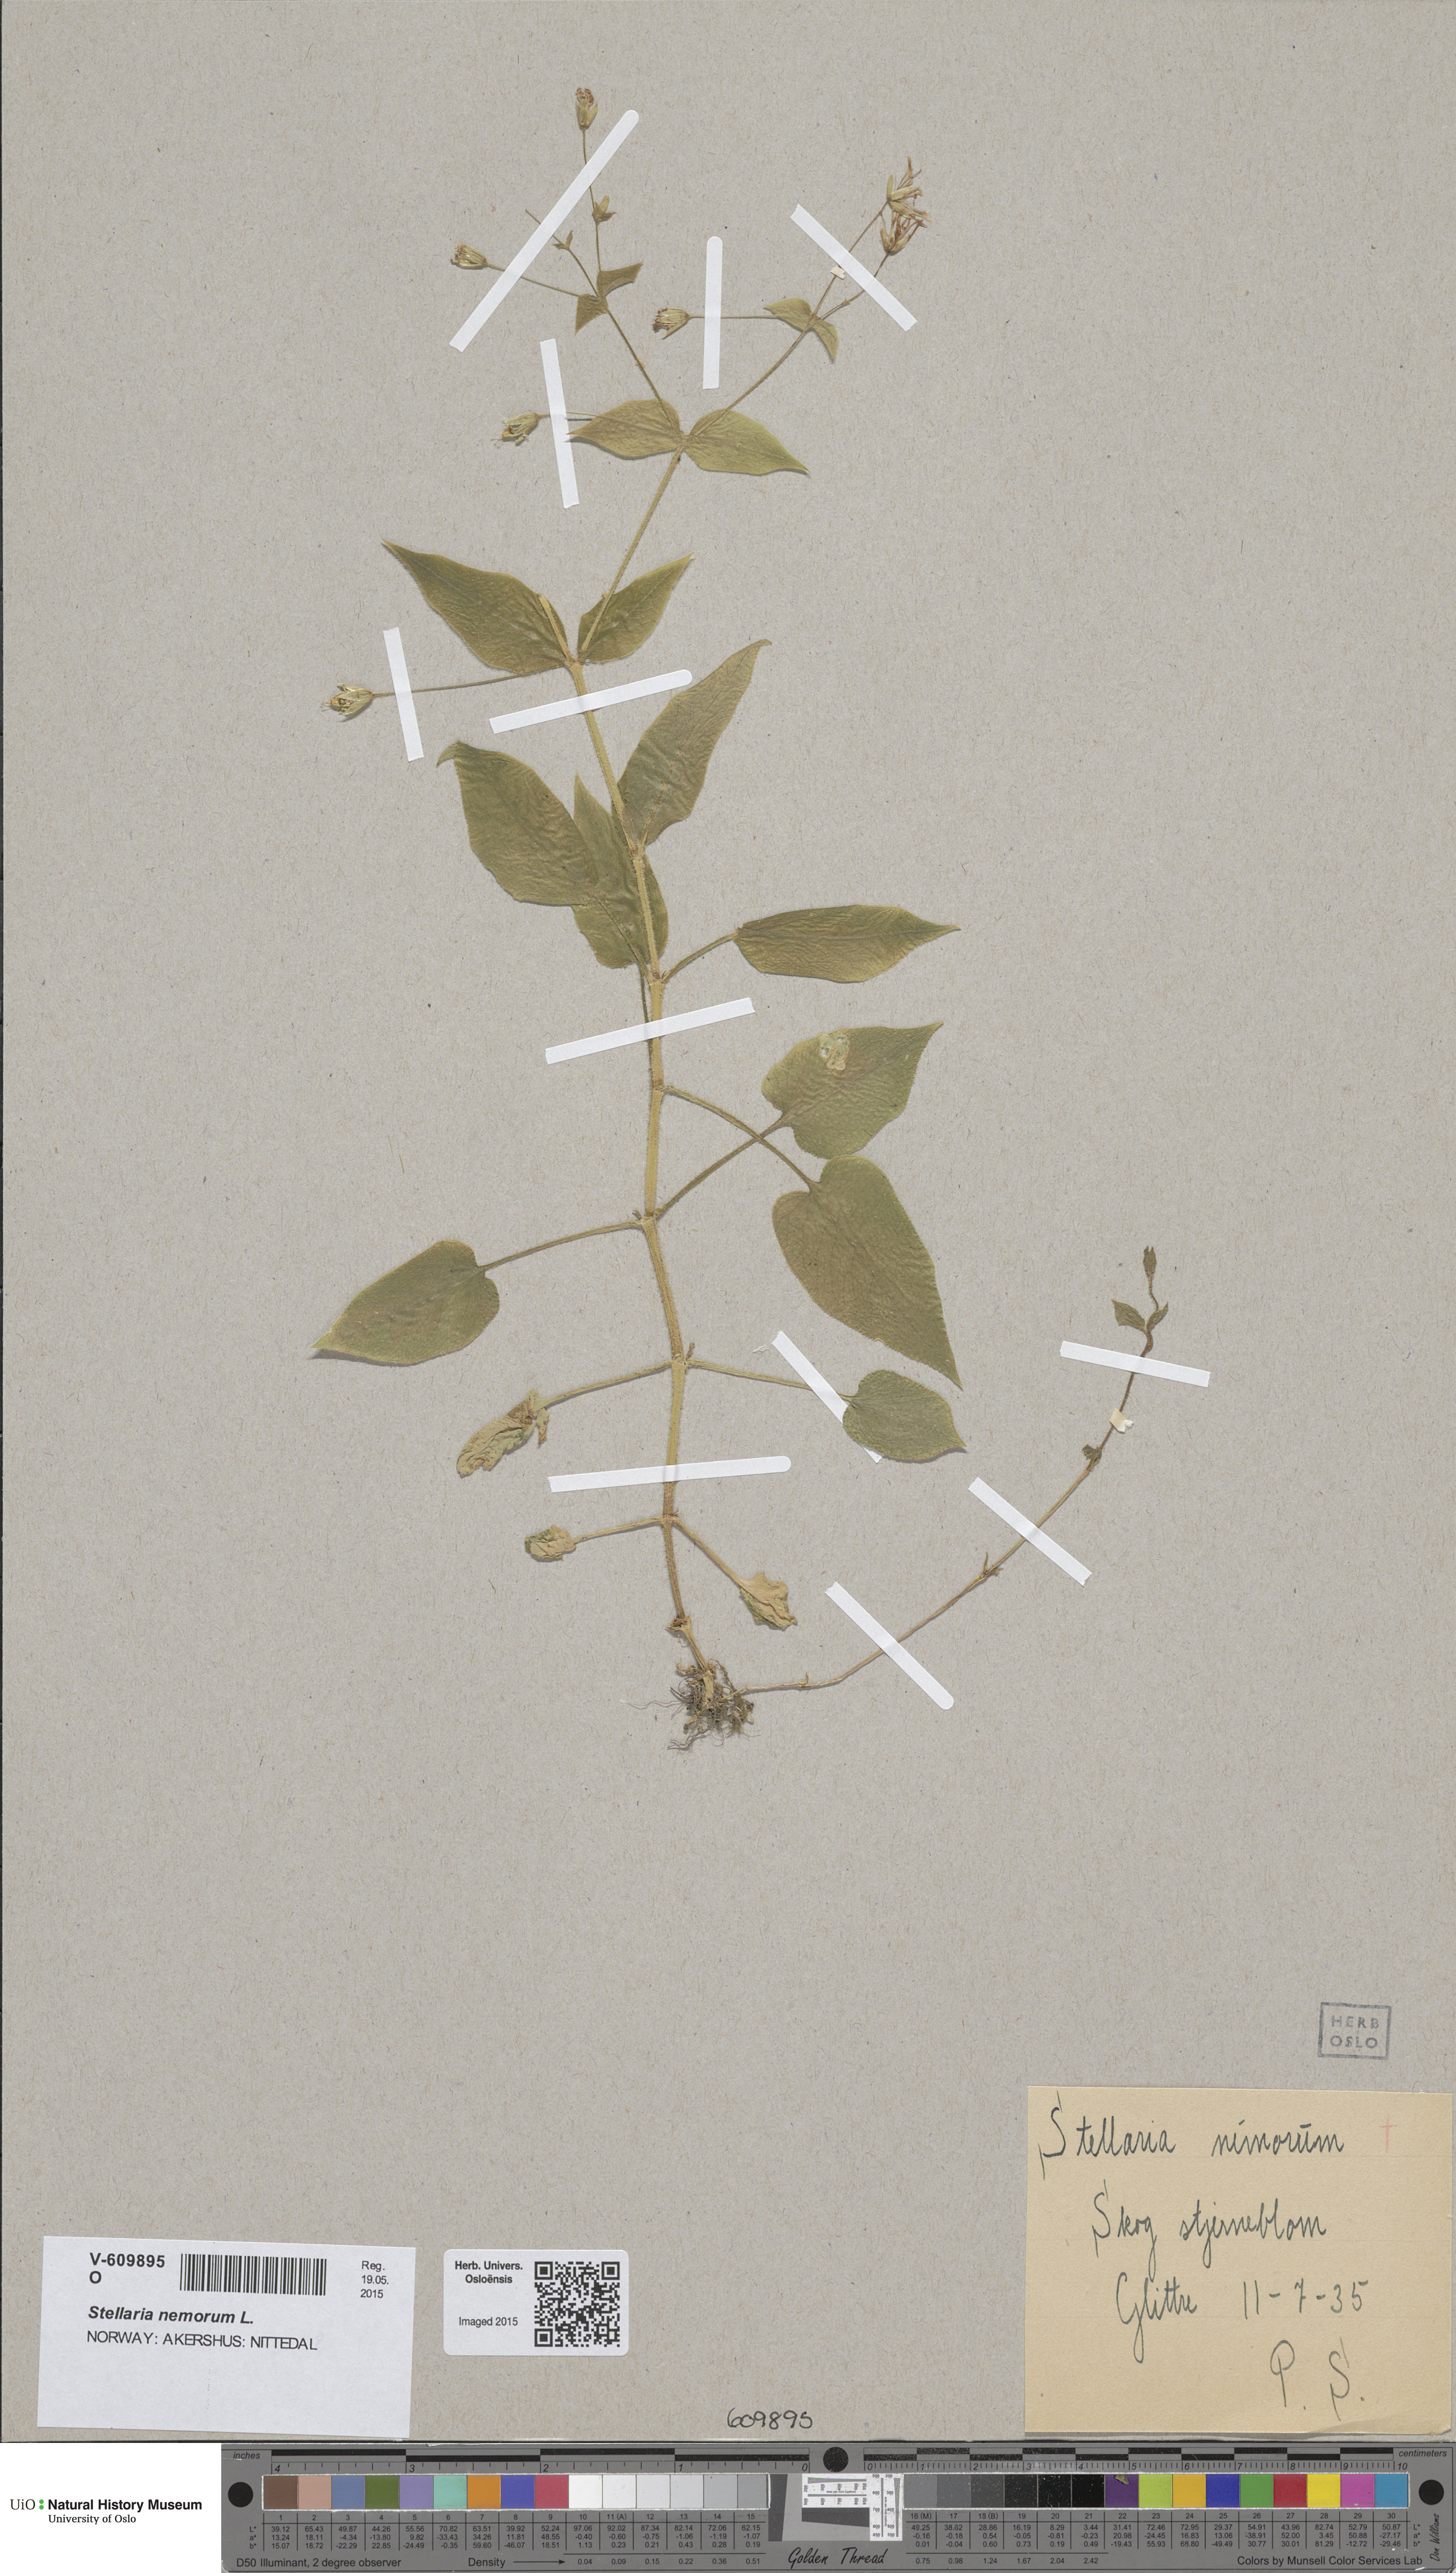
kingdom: Plantae
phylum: Tracheophyta
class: Magnoliopsida
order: Caryophyllales
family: Caryophyllaceae
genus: Stellaria
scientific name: Stellaria nemorum
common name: Wood stitchwort
